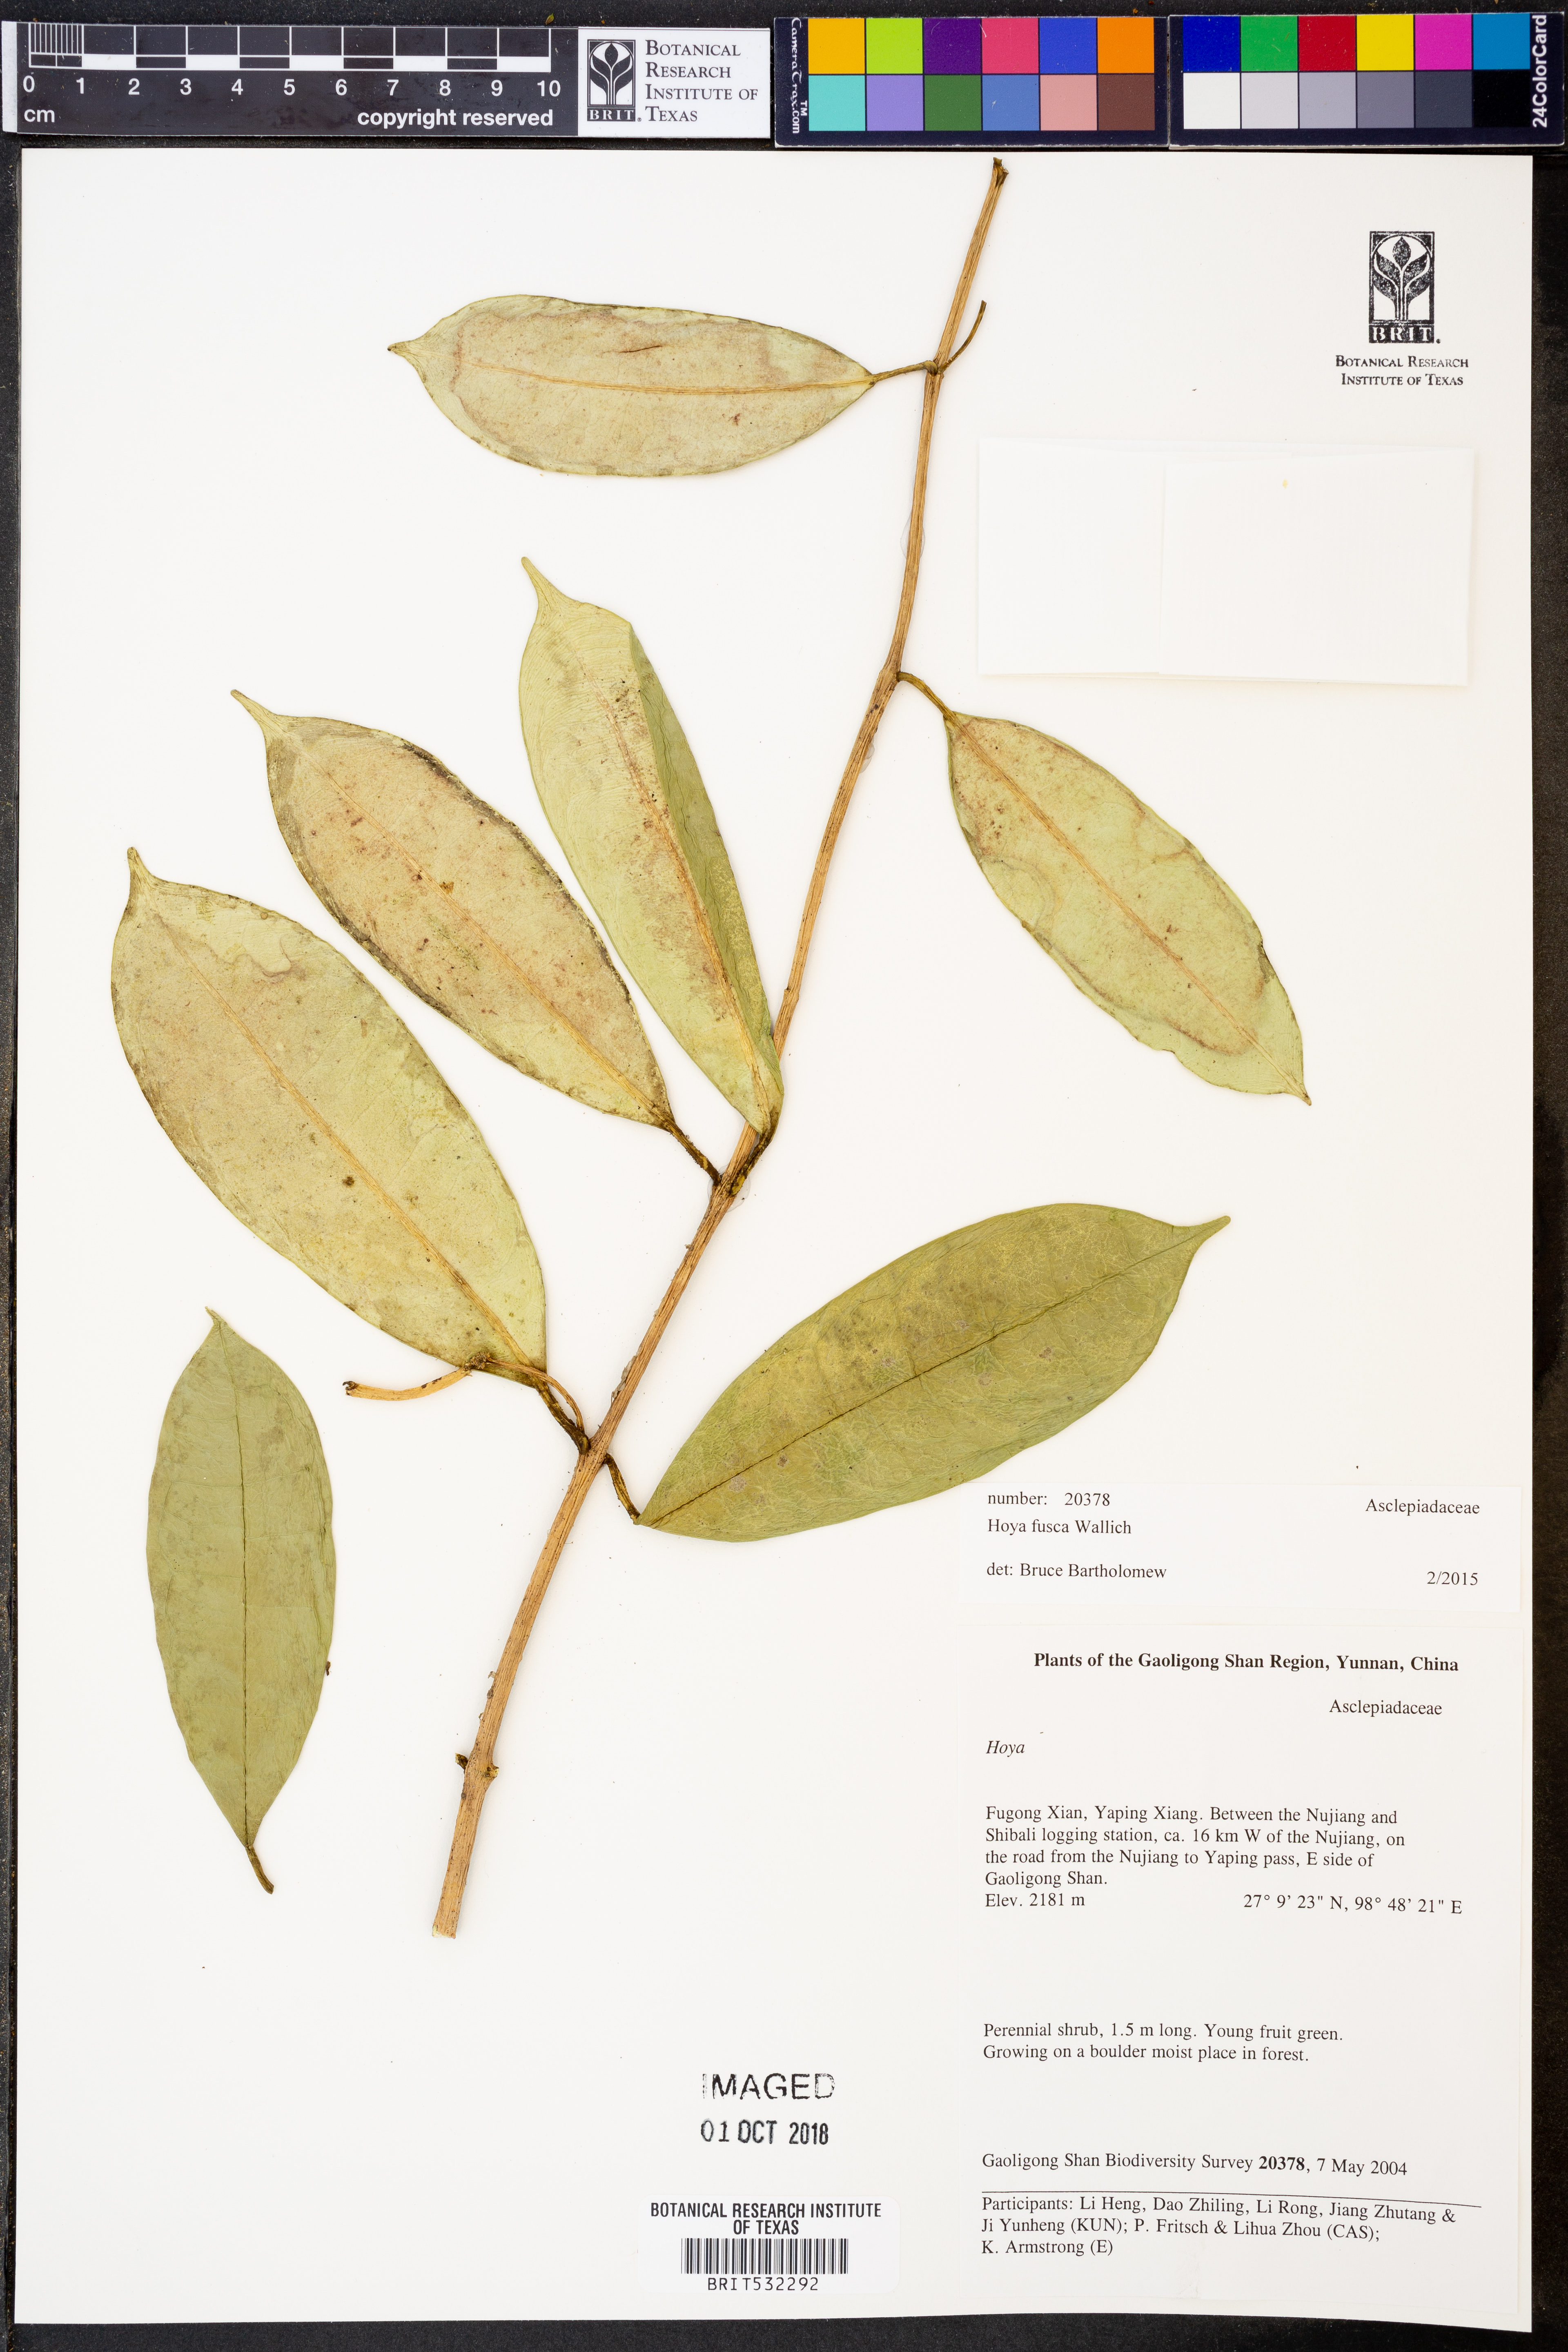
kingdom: Plantae
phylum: Tracheophyta
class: Magnoliopsida
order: Gentianales
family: Apocynaceae
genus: Hoya
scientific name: Hoya fusca
